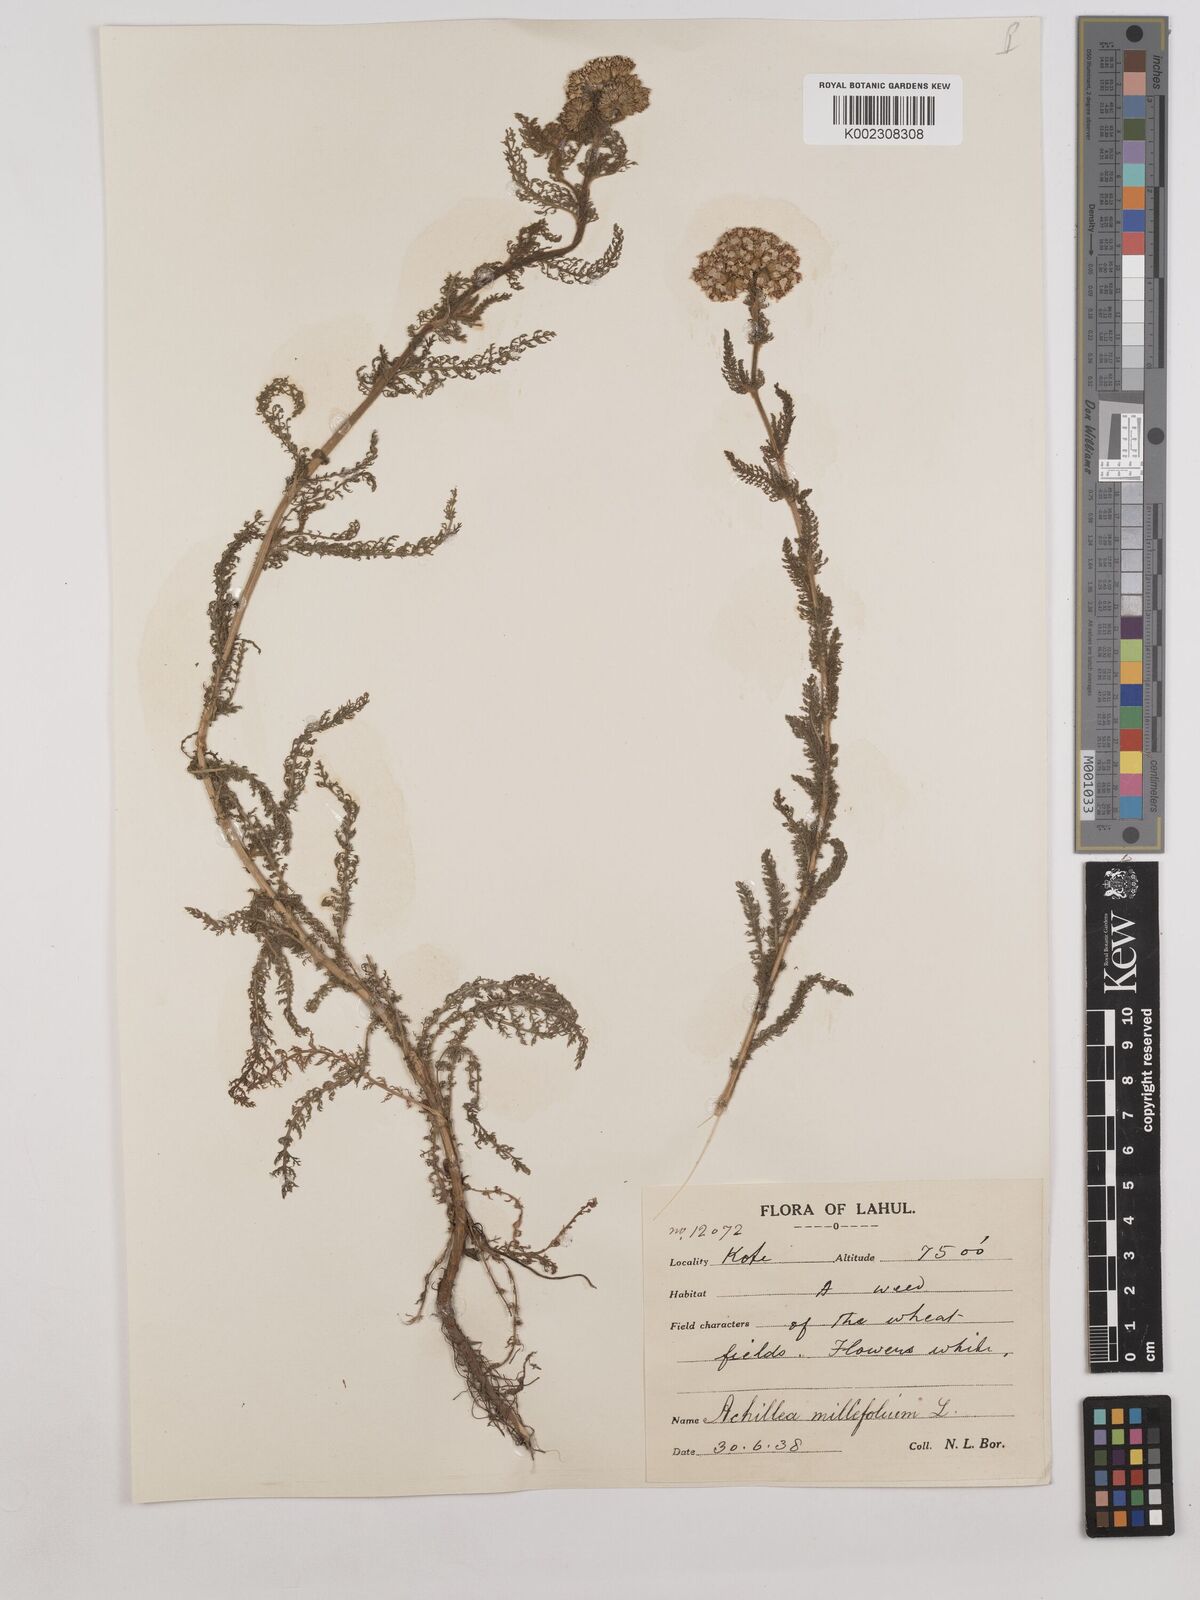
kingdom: Plantae
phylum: Tracheophyta
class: Magnoliopsida
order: Asterales
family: Asteraceae
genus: Achillea
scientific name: Achillea millefolium
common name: Yarrow
